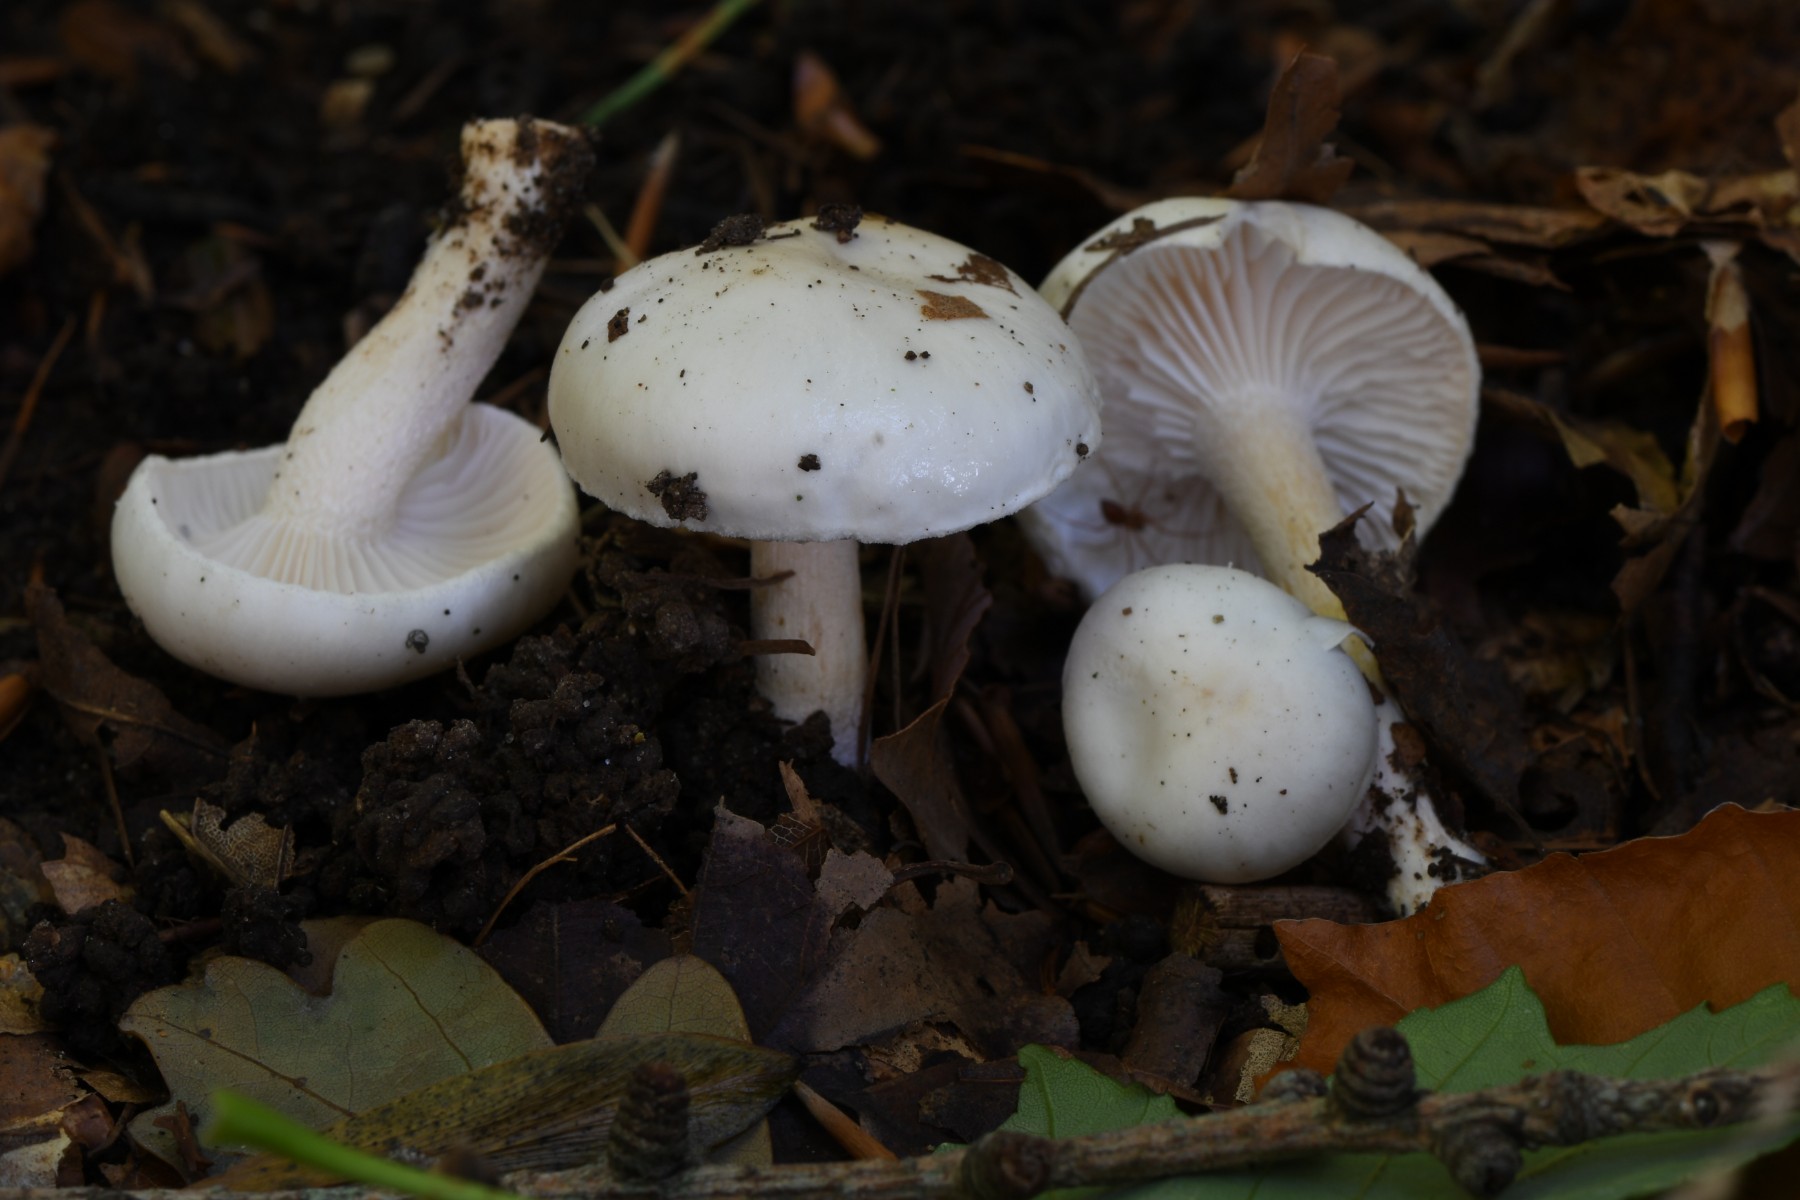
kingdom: Fungi
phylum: Basidiomycota
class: Agaricomycetes
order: Agaricales
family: Hygrophoraceae
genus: Hygrophorus
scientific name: Hygrophorus
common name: sneglehat
